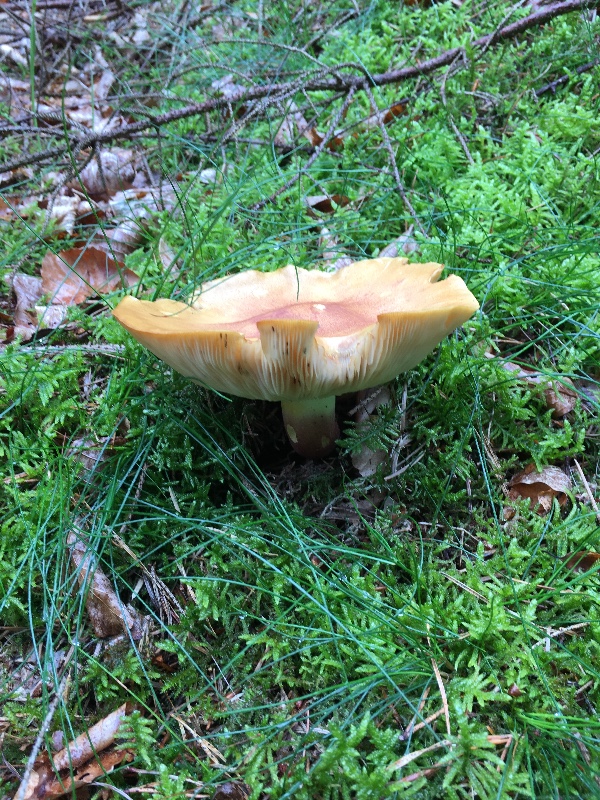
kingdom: Fungi
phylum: Basidiomycota
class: Agaricomycetes
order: Agaricales
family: Tricholomataceae
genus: Tricholomopsis
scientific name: Tricholomopsis rutilans
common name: purpur-væbnerhat
